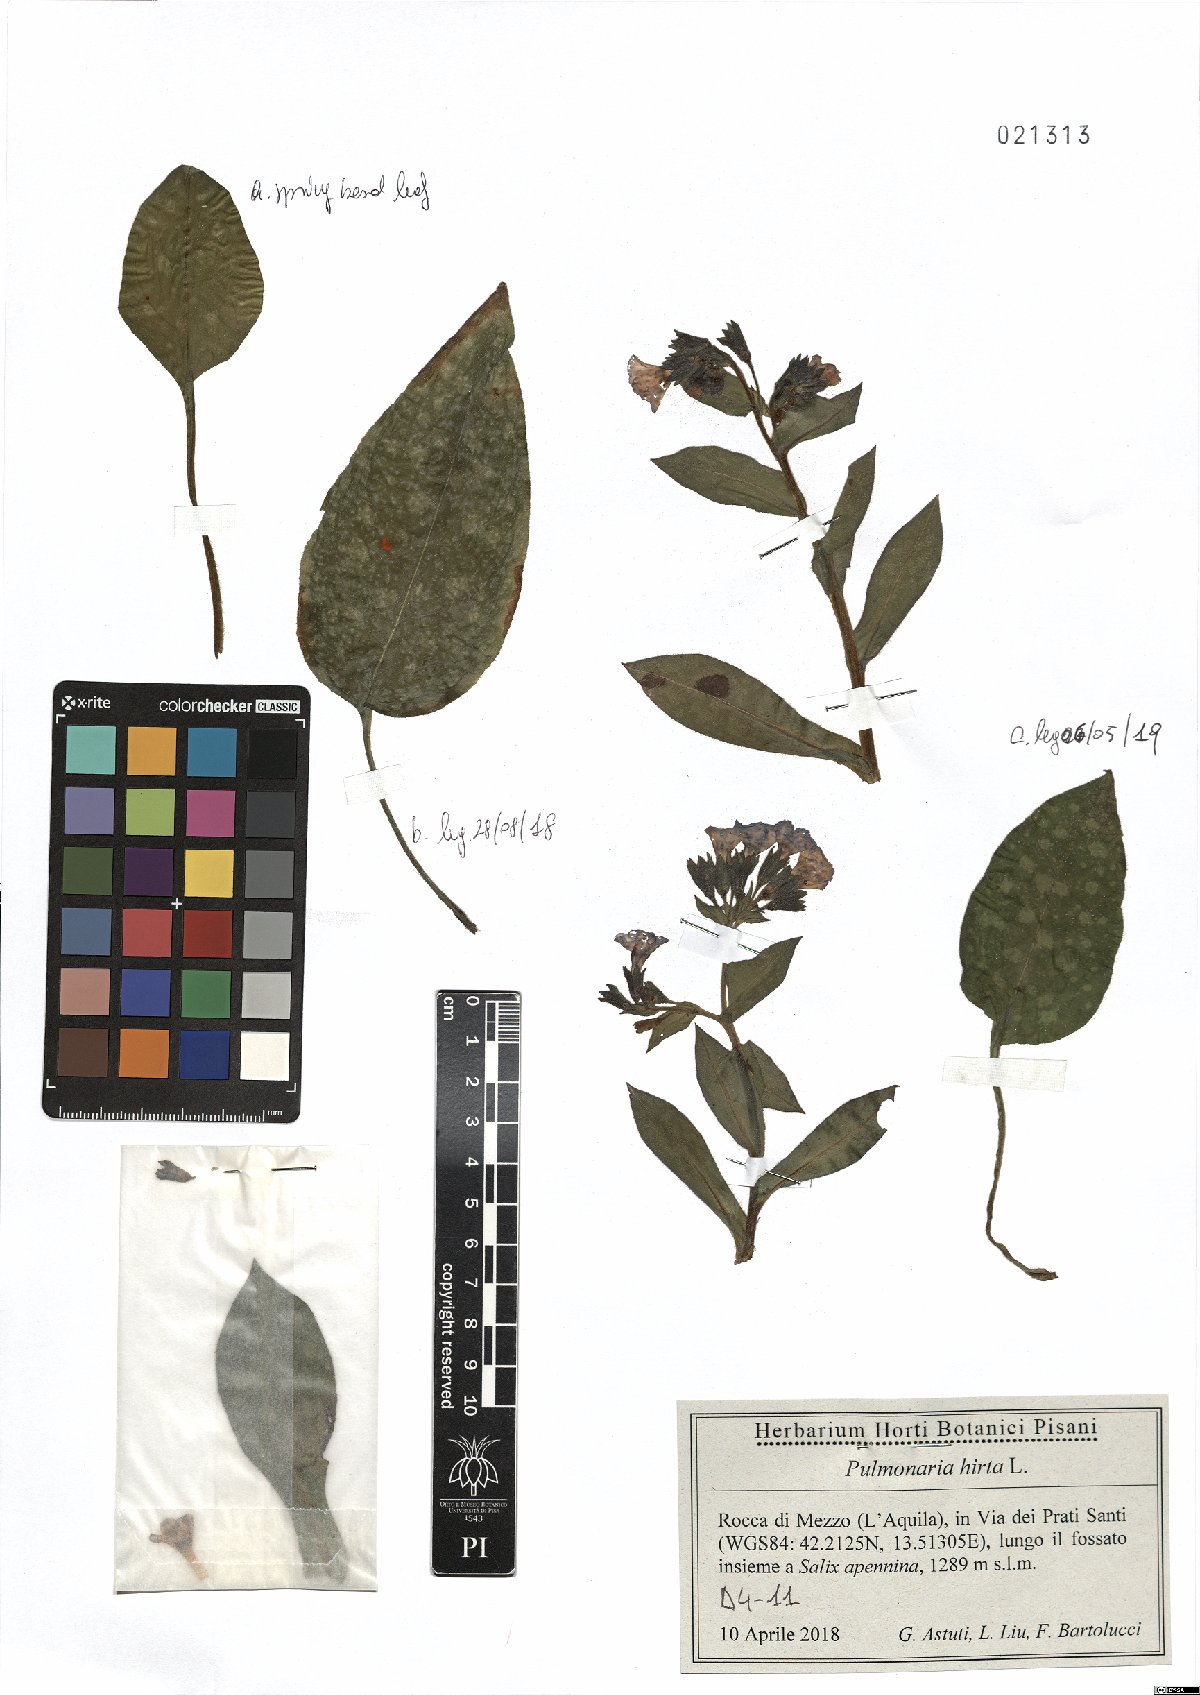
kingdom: Plantae
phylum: Tracheophyta
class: Magnoliopsida
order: Boraginales
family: Boraginaceae
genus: Pulmonaria
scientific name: Pulmonaria hirta
